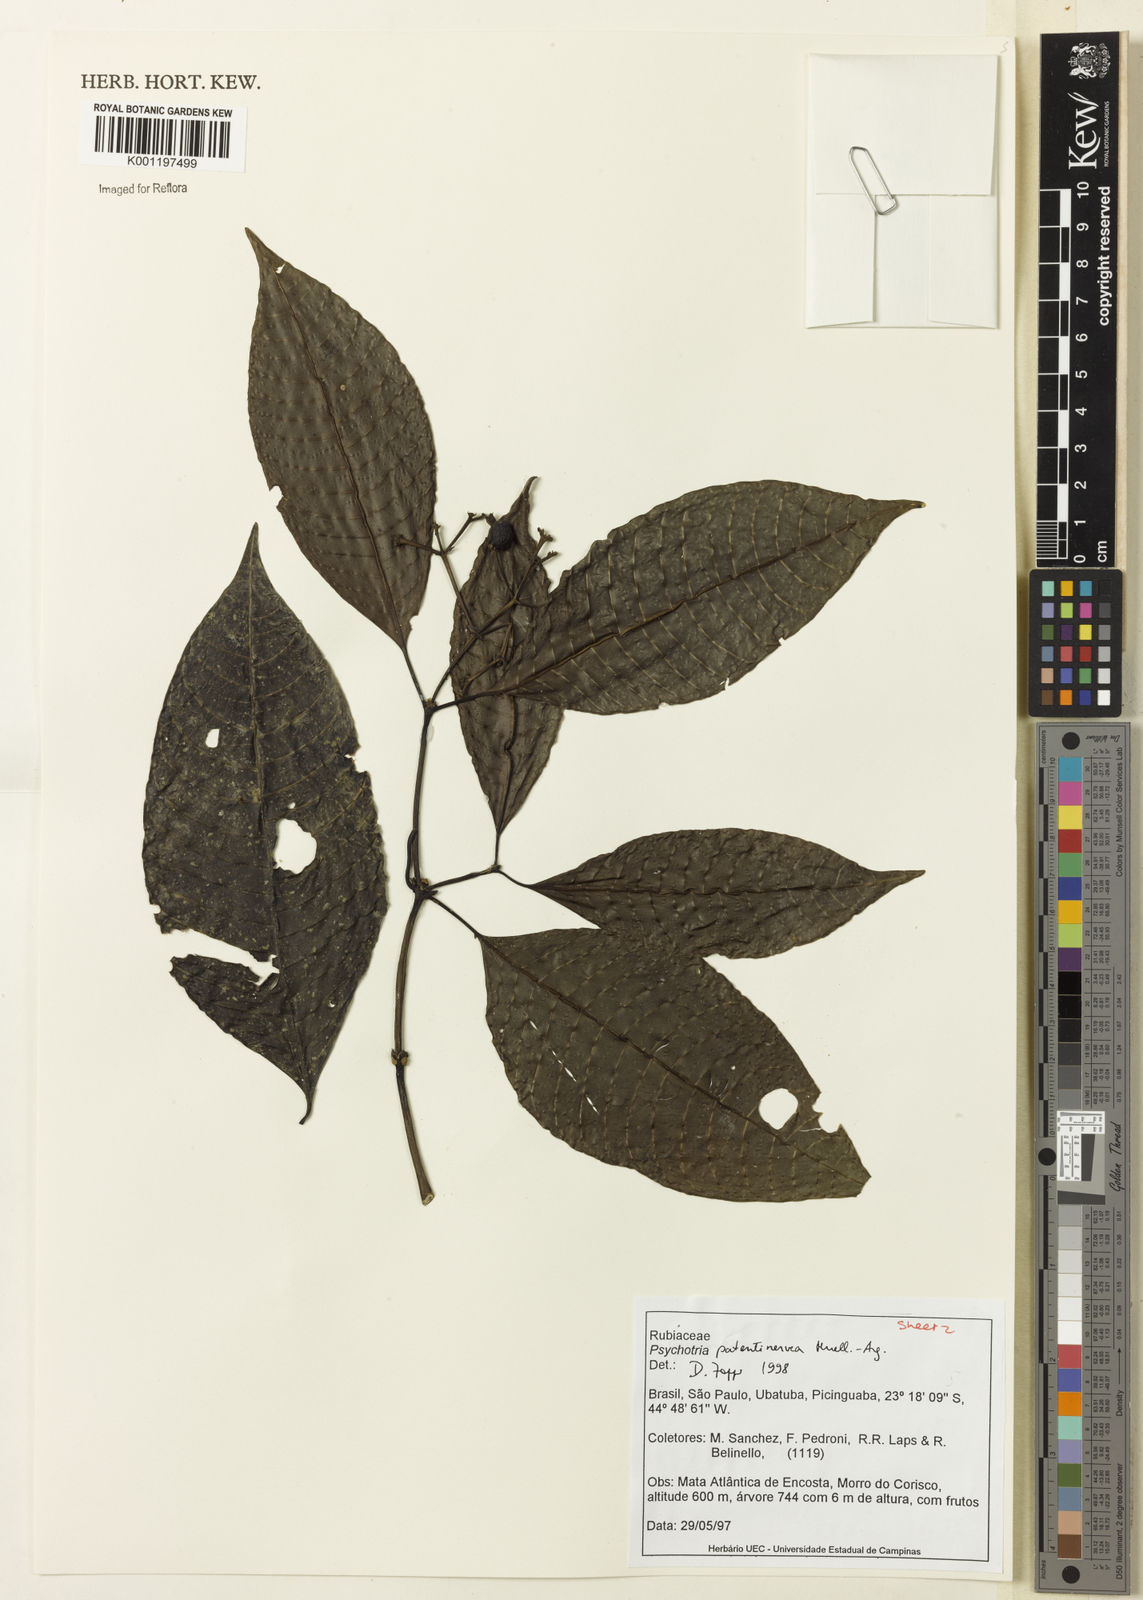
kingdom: Plantae
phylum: Tracheophyta
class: Magnoliopsida
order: Gentianales
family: Rubiaceae
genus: Psychotria
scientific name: Psychotria
